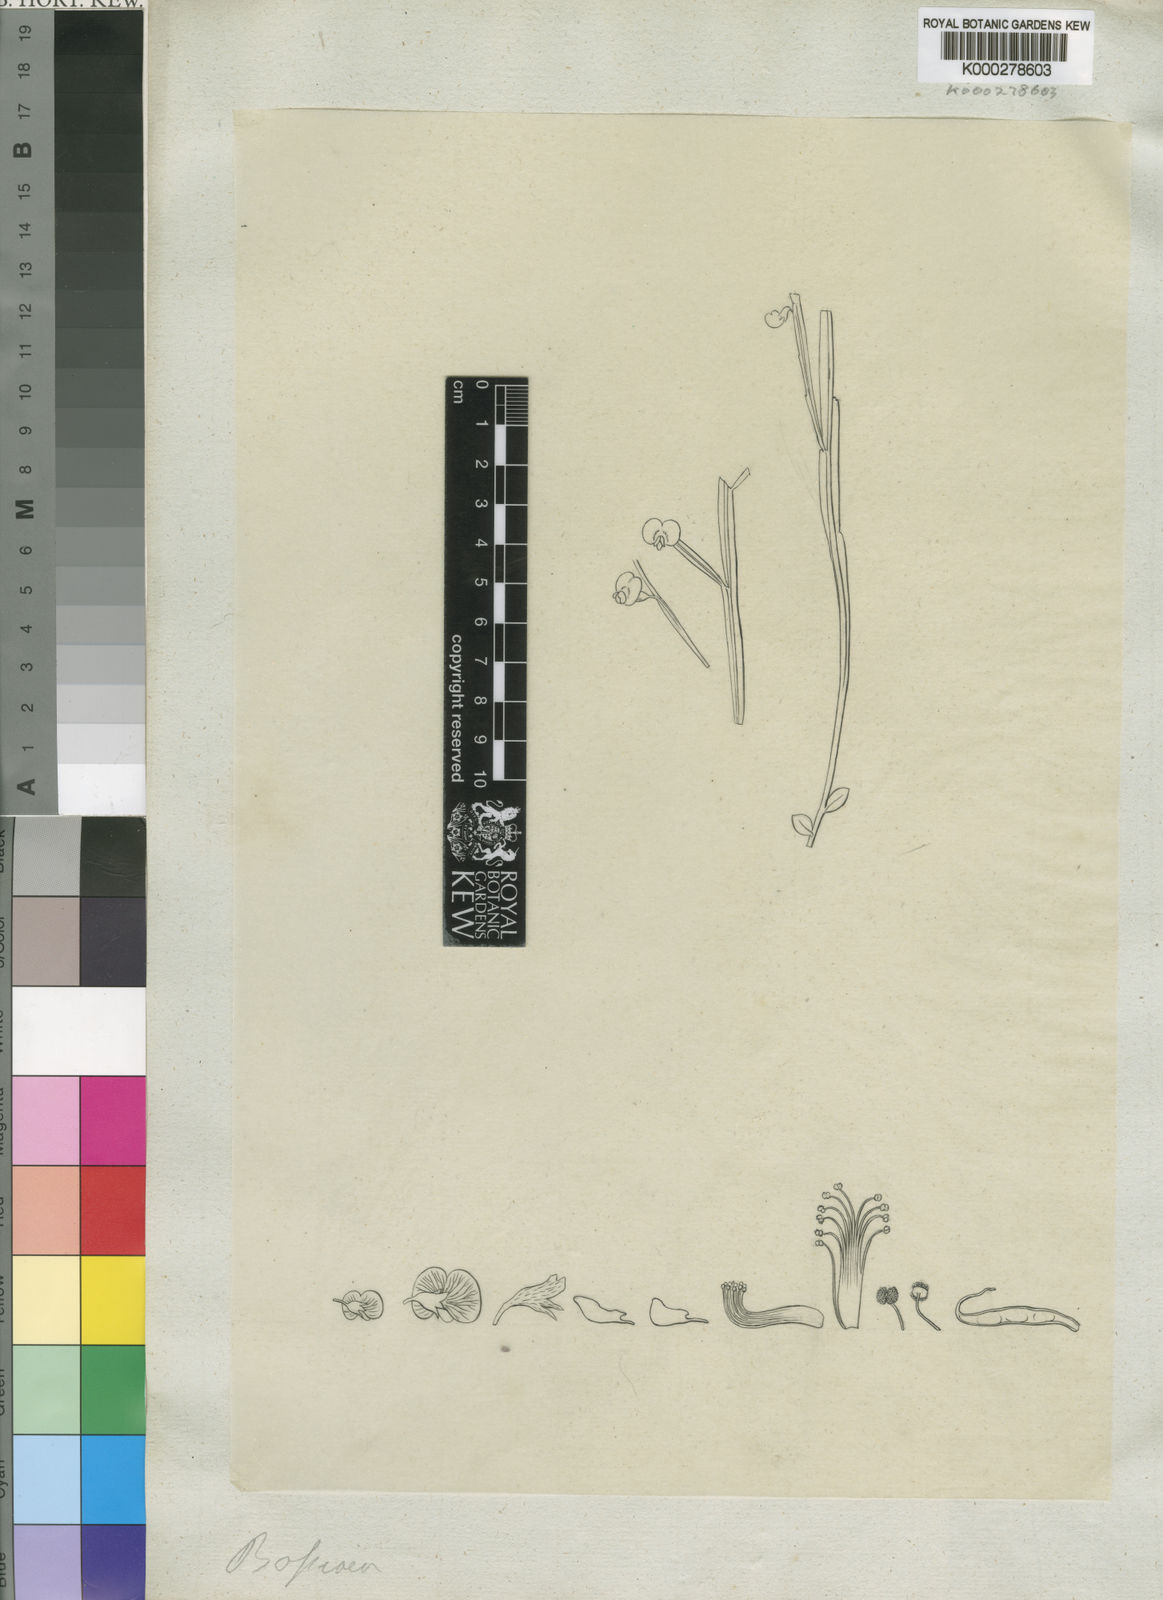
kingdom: Plantae
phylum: Tracheophyta
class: Magnoliopsida
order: Fabales
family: Fabaceae
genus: Bossiaea
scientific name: Bossiaea
